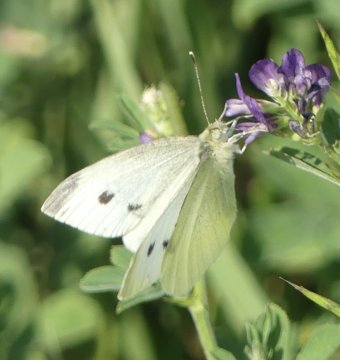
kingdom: Animalia
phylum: Arthropoda
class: Insecta
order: Lepidoptera
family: Pieridae
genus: Pieris
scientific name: Pieris rapae
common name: Cabbage White
